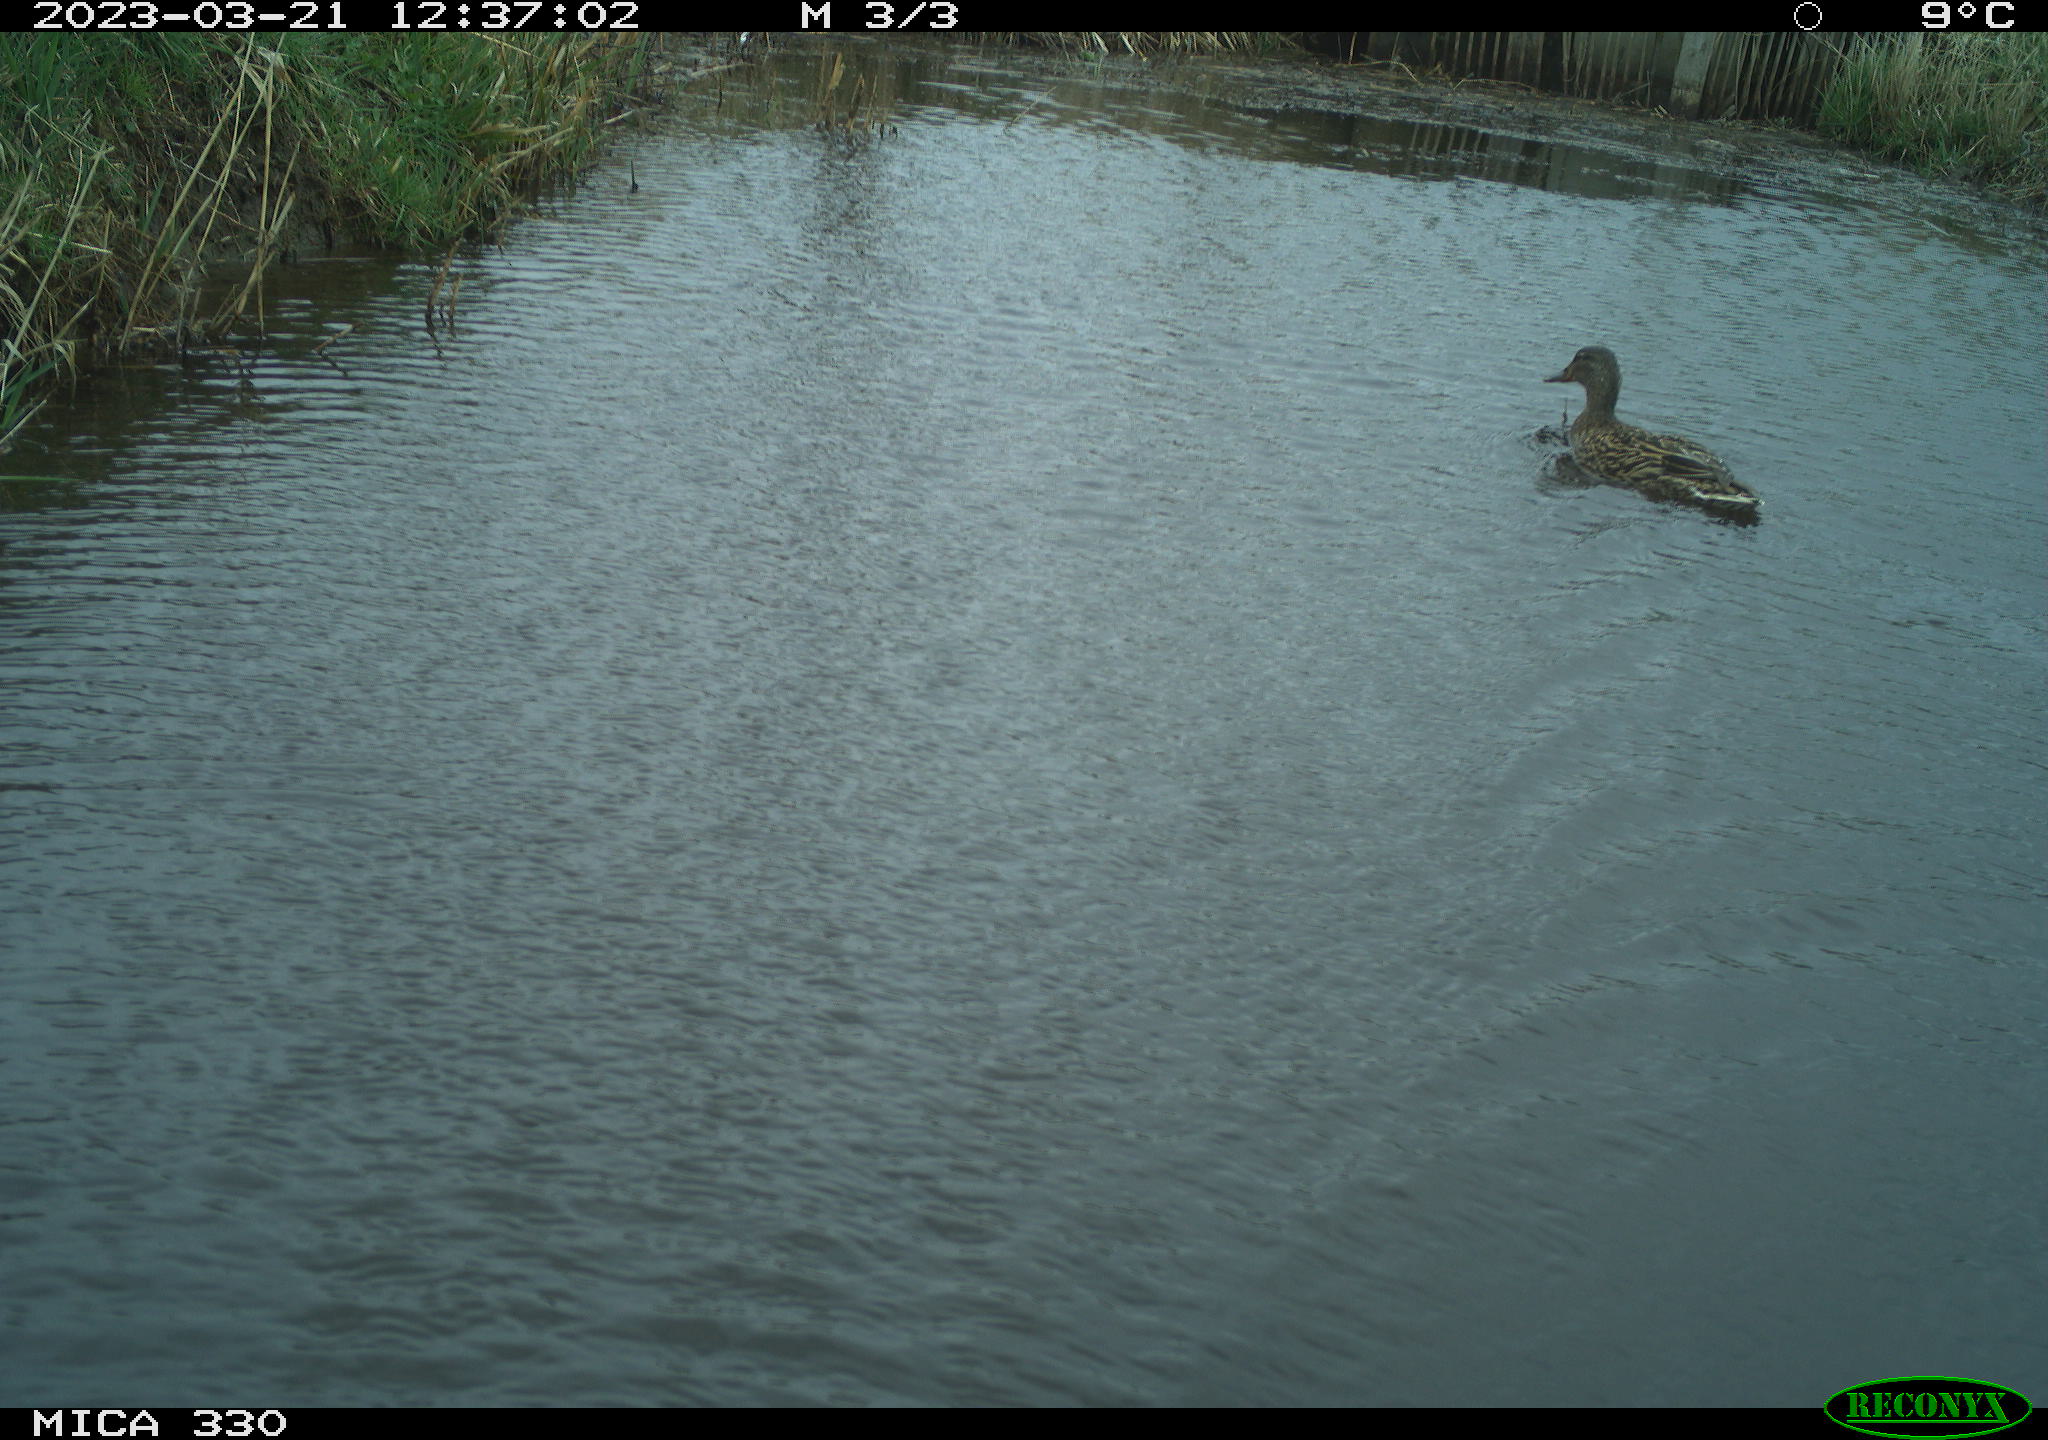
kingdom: Animalia
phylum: Chordata
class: Aves
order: Anseriformes
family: Anatidae
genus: Anas
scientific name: Anas platyrhynchos
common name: Mallard
